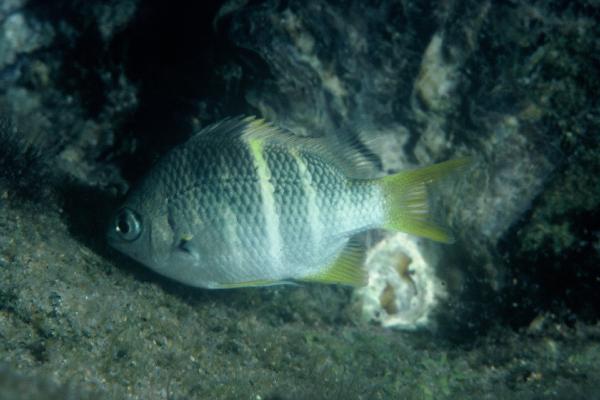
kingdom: Animalia
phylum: Chordata
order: Perciformes
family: Pomacentridae
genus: Abudefduf
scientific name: Abudefduf notatus
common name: Yellow-tail sergeant
